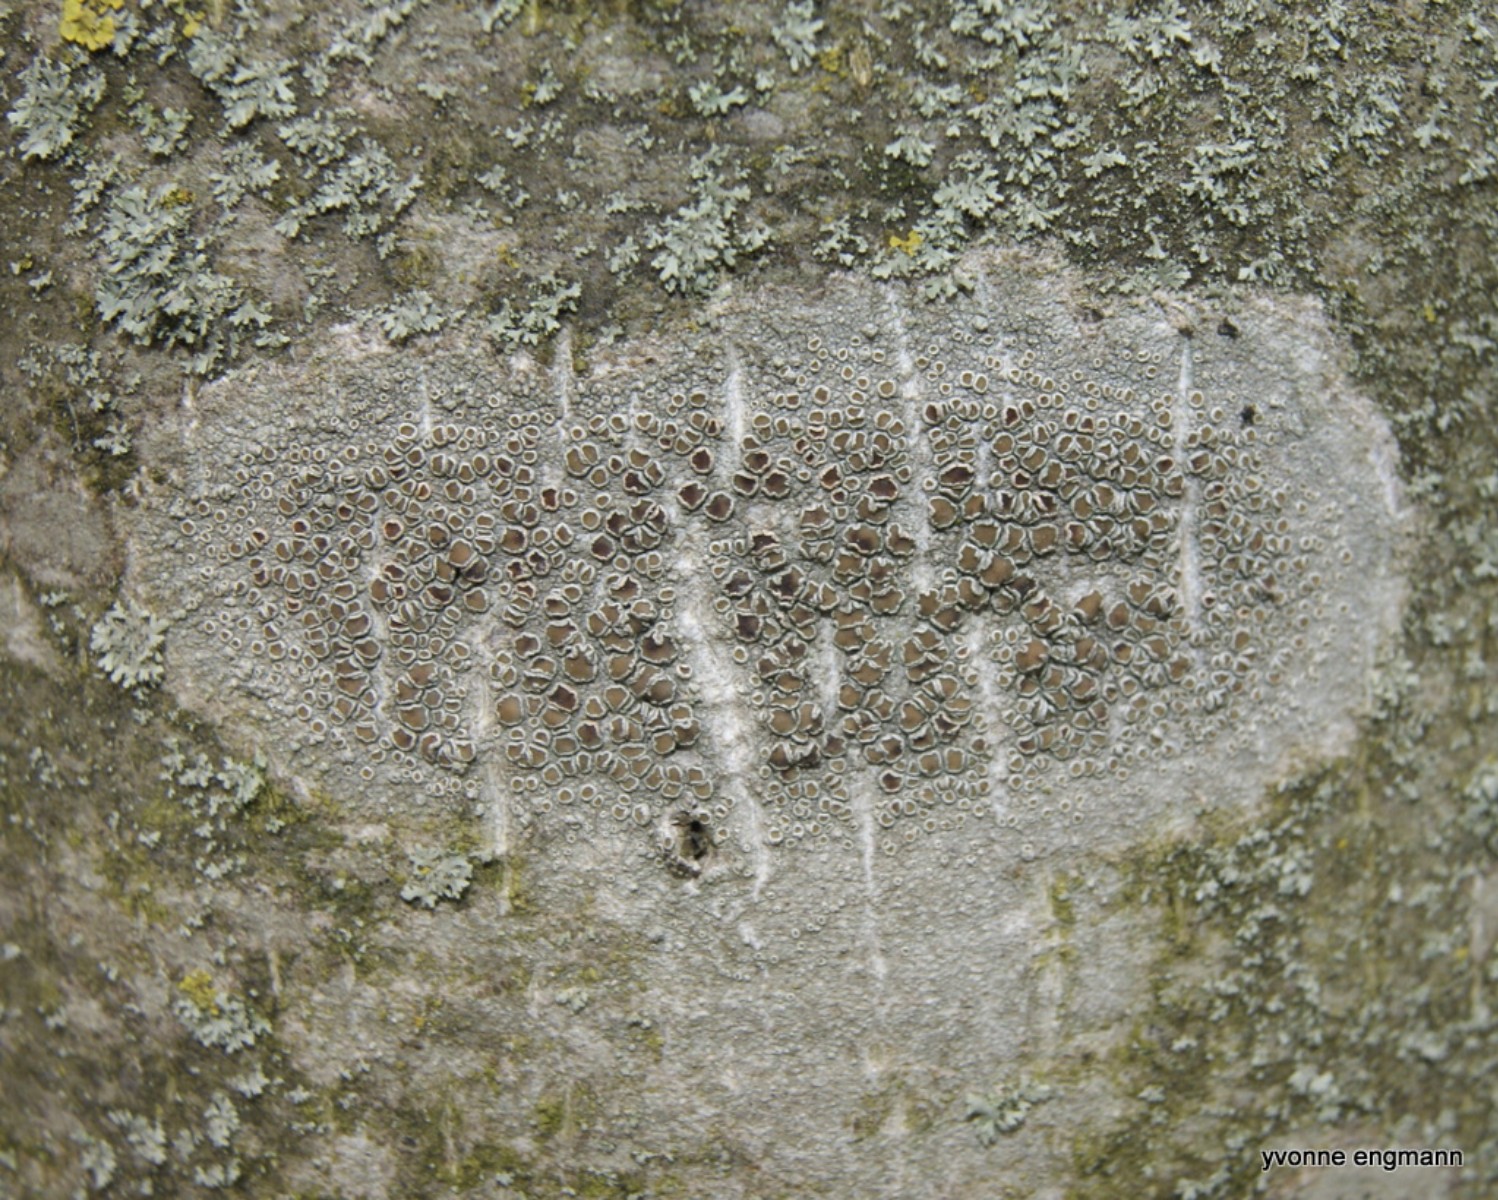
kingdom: Fungi
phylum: Ascomycota
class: Lecanoromycetes
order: Lecanorales
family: Lecanoraceae
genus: Lecanora
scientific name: Lecanora chlarotera
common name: brun kantskivelav
